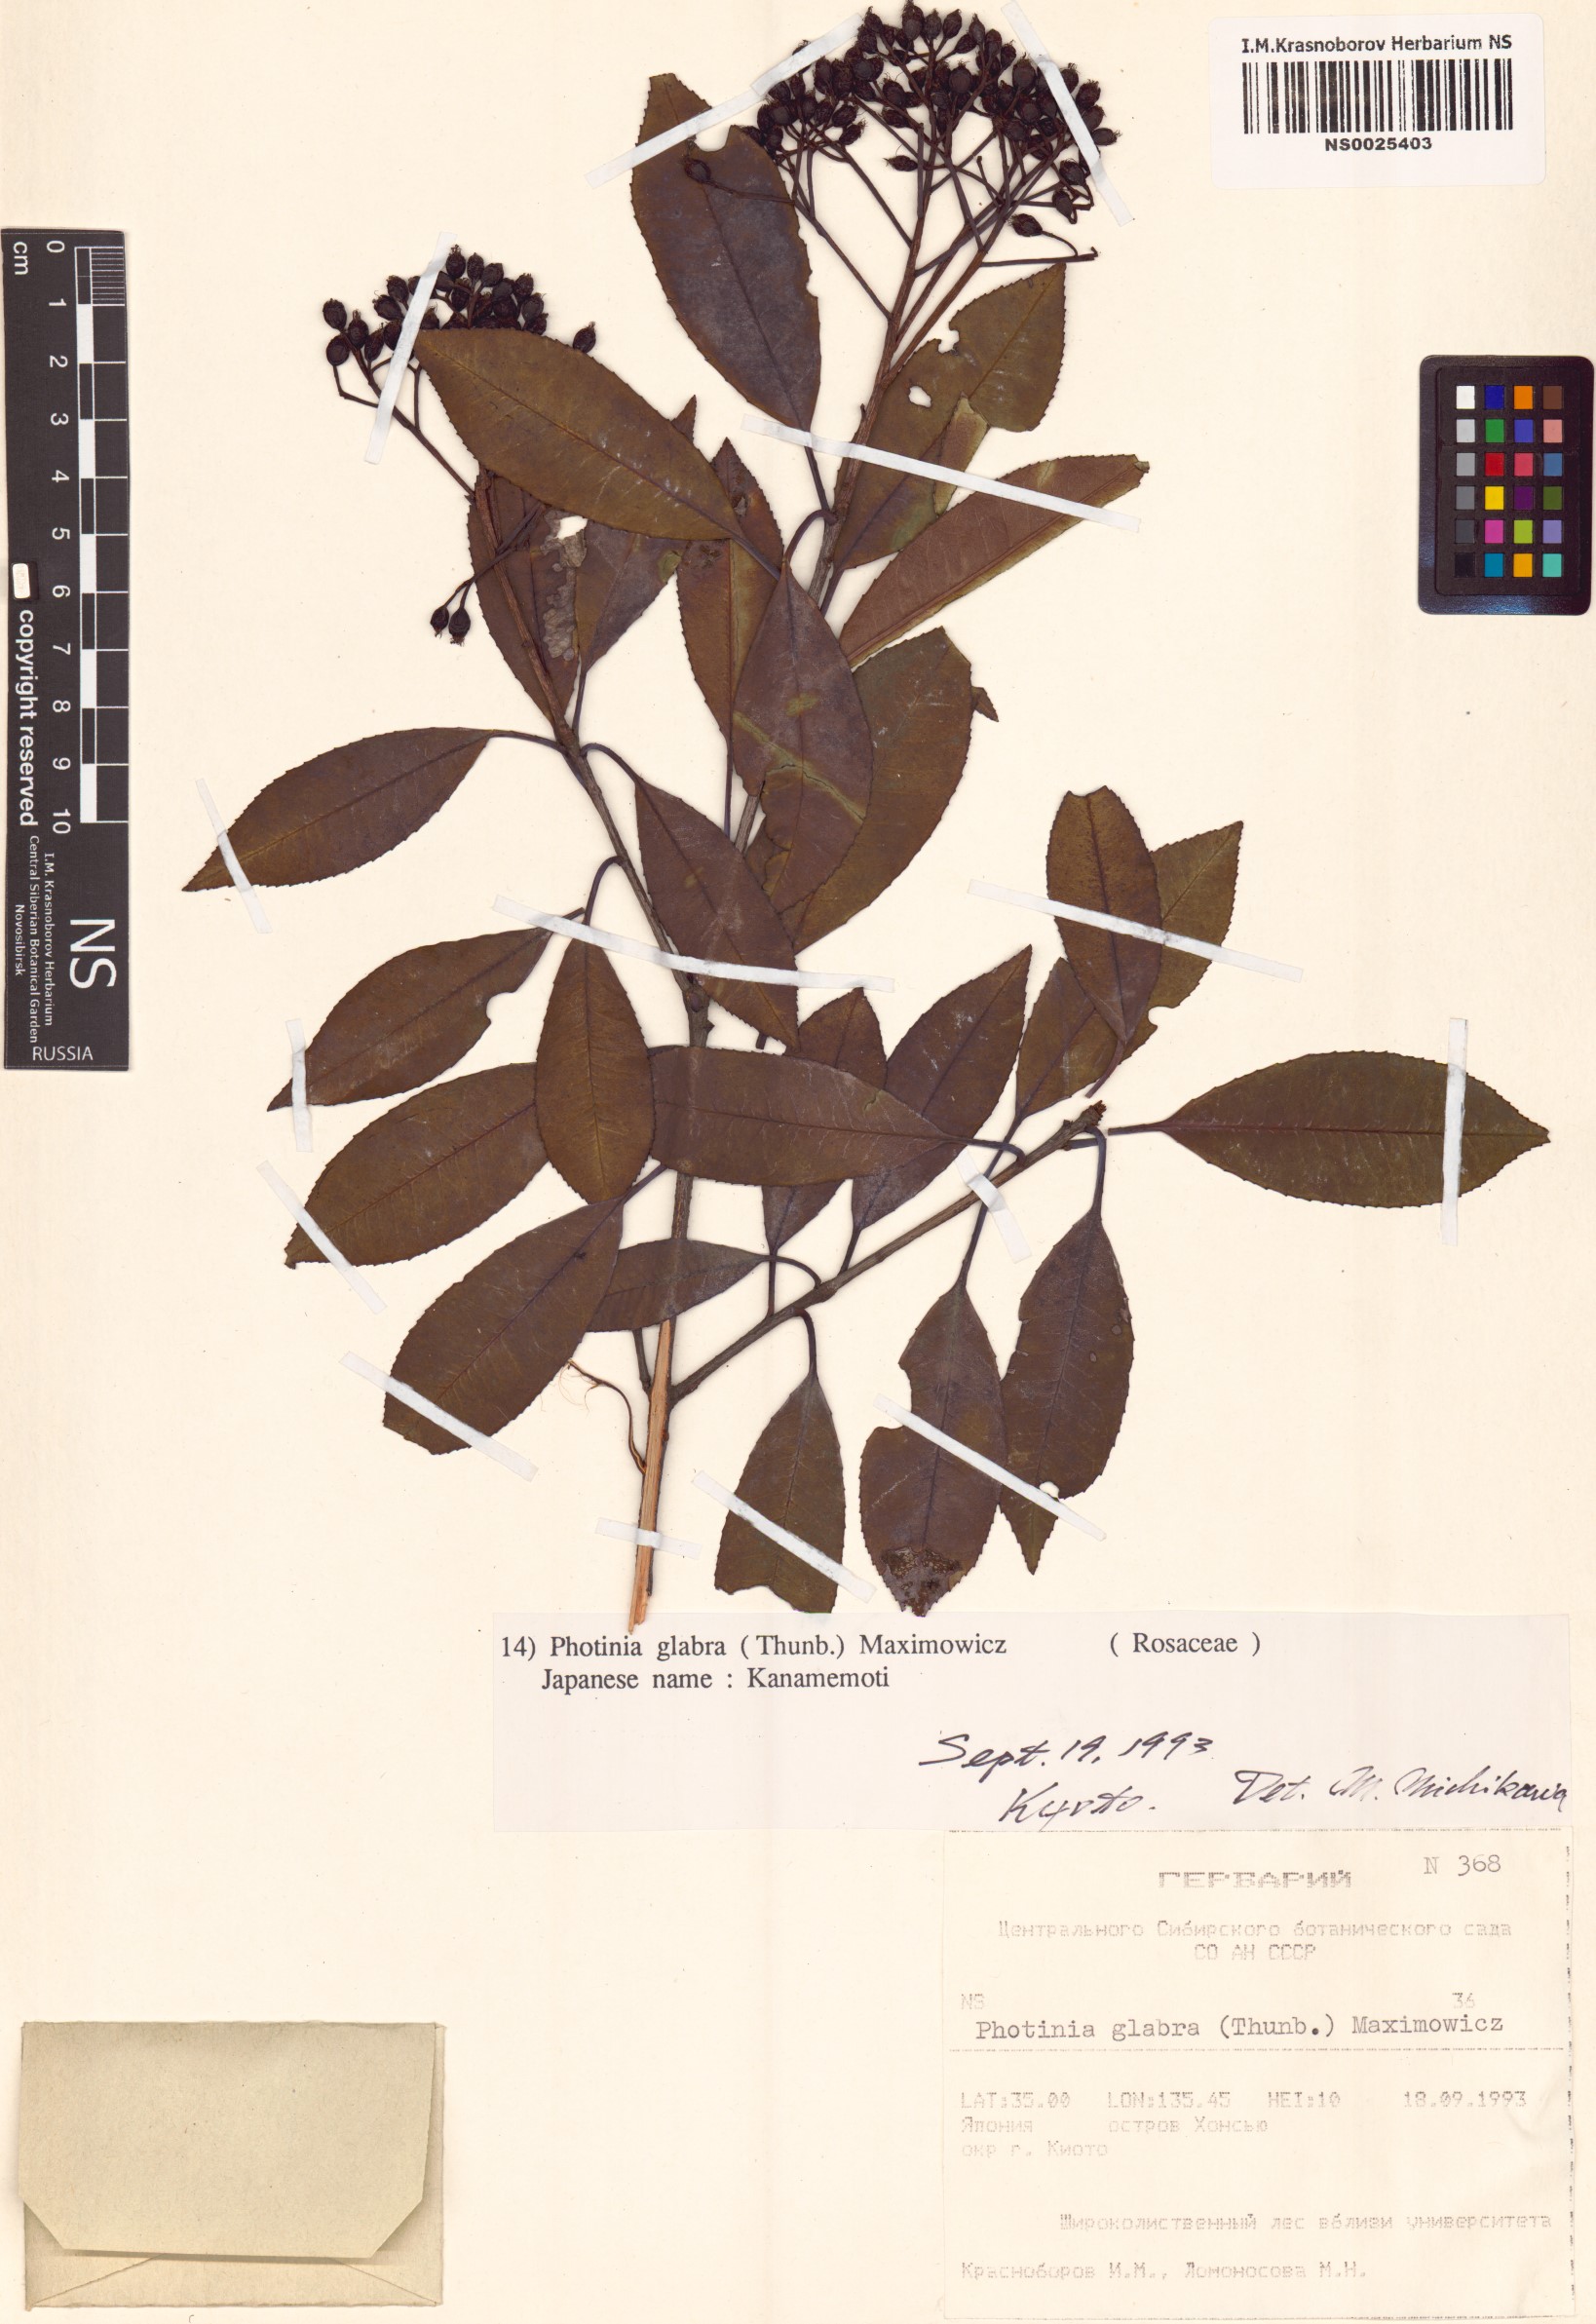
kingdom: Plantae
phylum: Tracheophyta
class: Magnoliopsida
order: Rosales
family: Rosaceae
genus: Photinia
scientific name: Photinia glabra
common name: Japanese photinia
